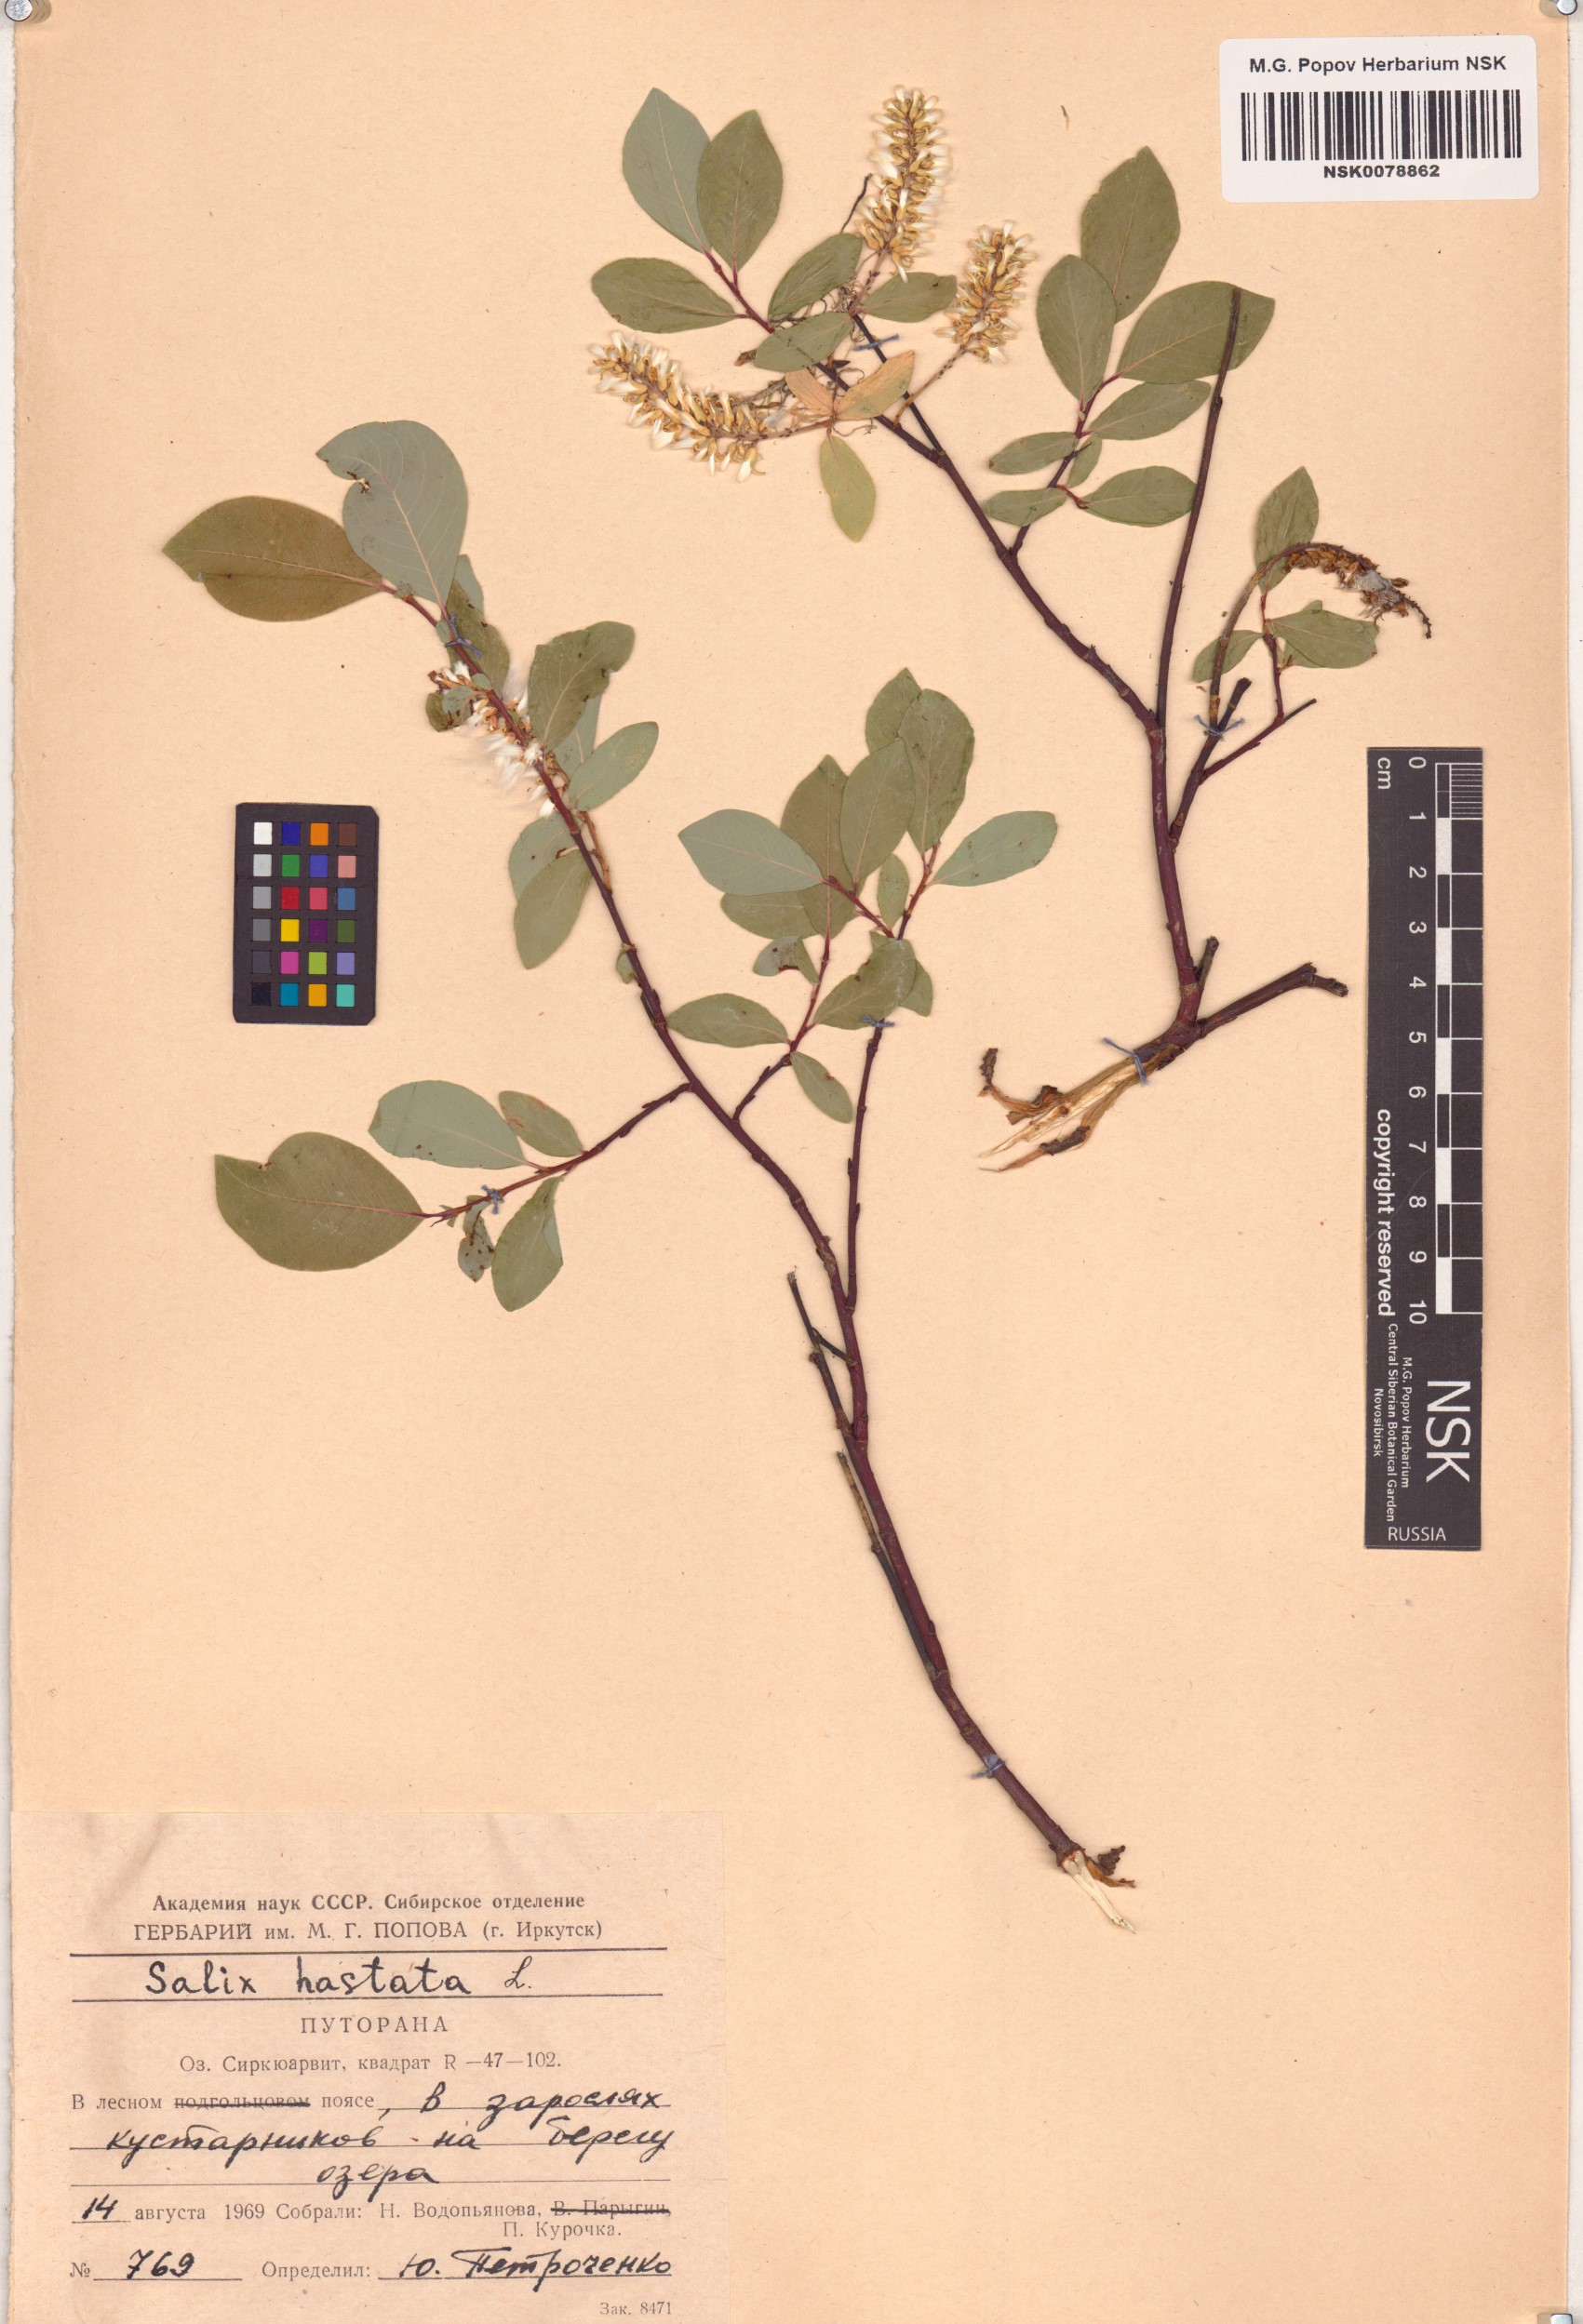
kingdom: Plantae
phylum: Tracheophyta
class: Magnoliopsida
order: Malpighiales
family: Salicaceae
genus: Salix
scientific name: Salix hastata
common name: Halberd willow
